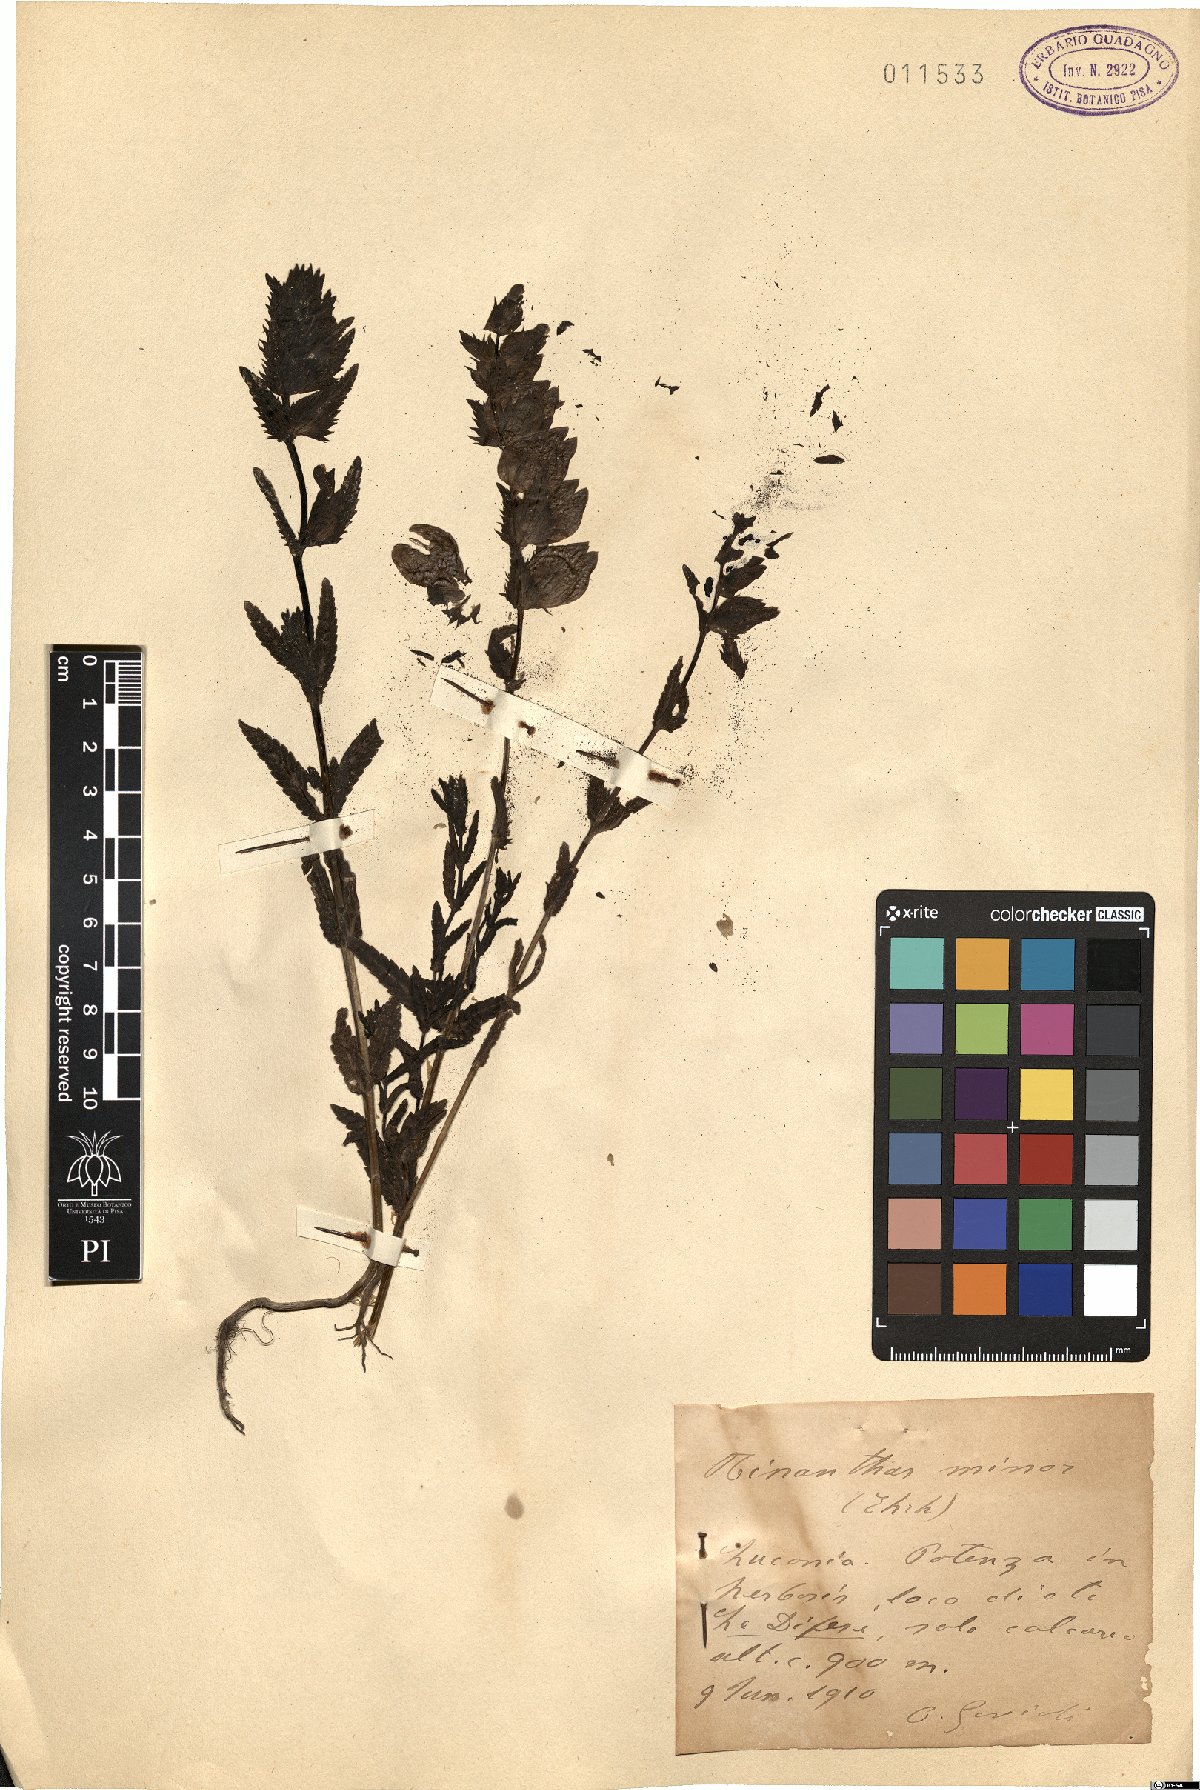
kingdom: Plantae
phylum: Tracheophyta
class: Magnoliopsida
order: Lamiales
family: Orobanchaceae
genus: Rhinanthus
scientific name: Rhinanthus minor
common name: Yellow-rattle
